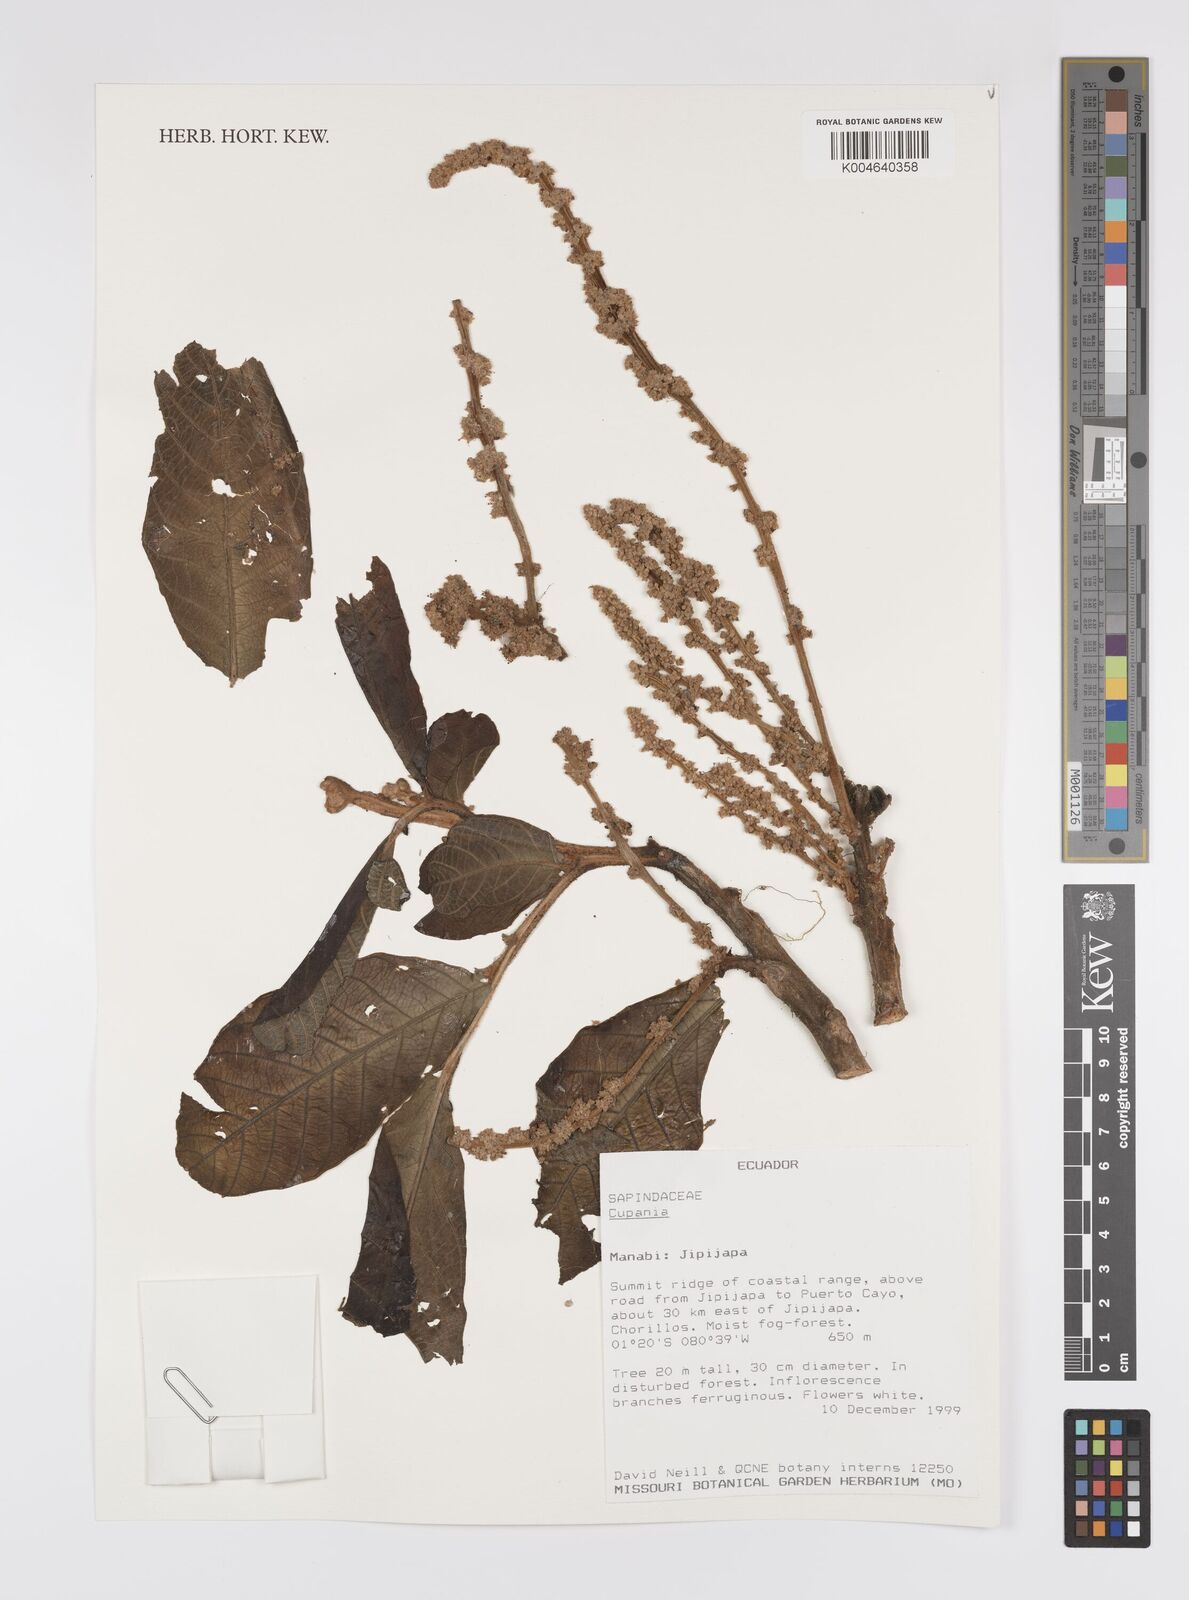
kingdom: Plantae
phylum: Tracheophyta
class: Magnoliopsida
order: Sapindales
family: Sapindaceae
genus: Cupania
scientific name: Cupania
